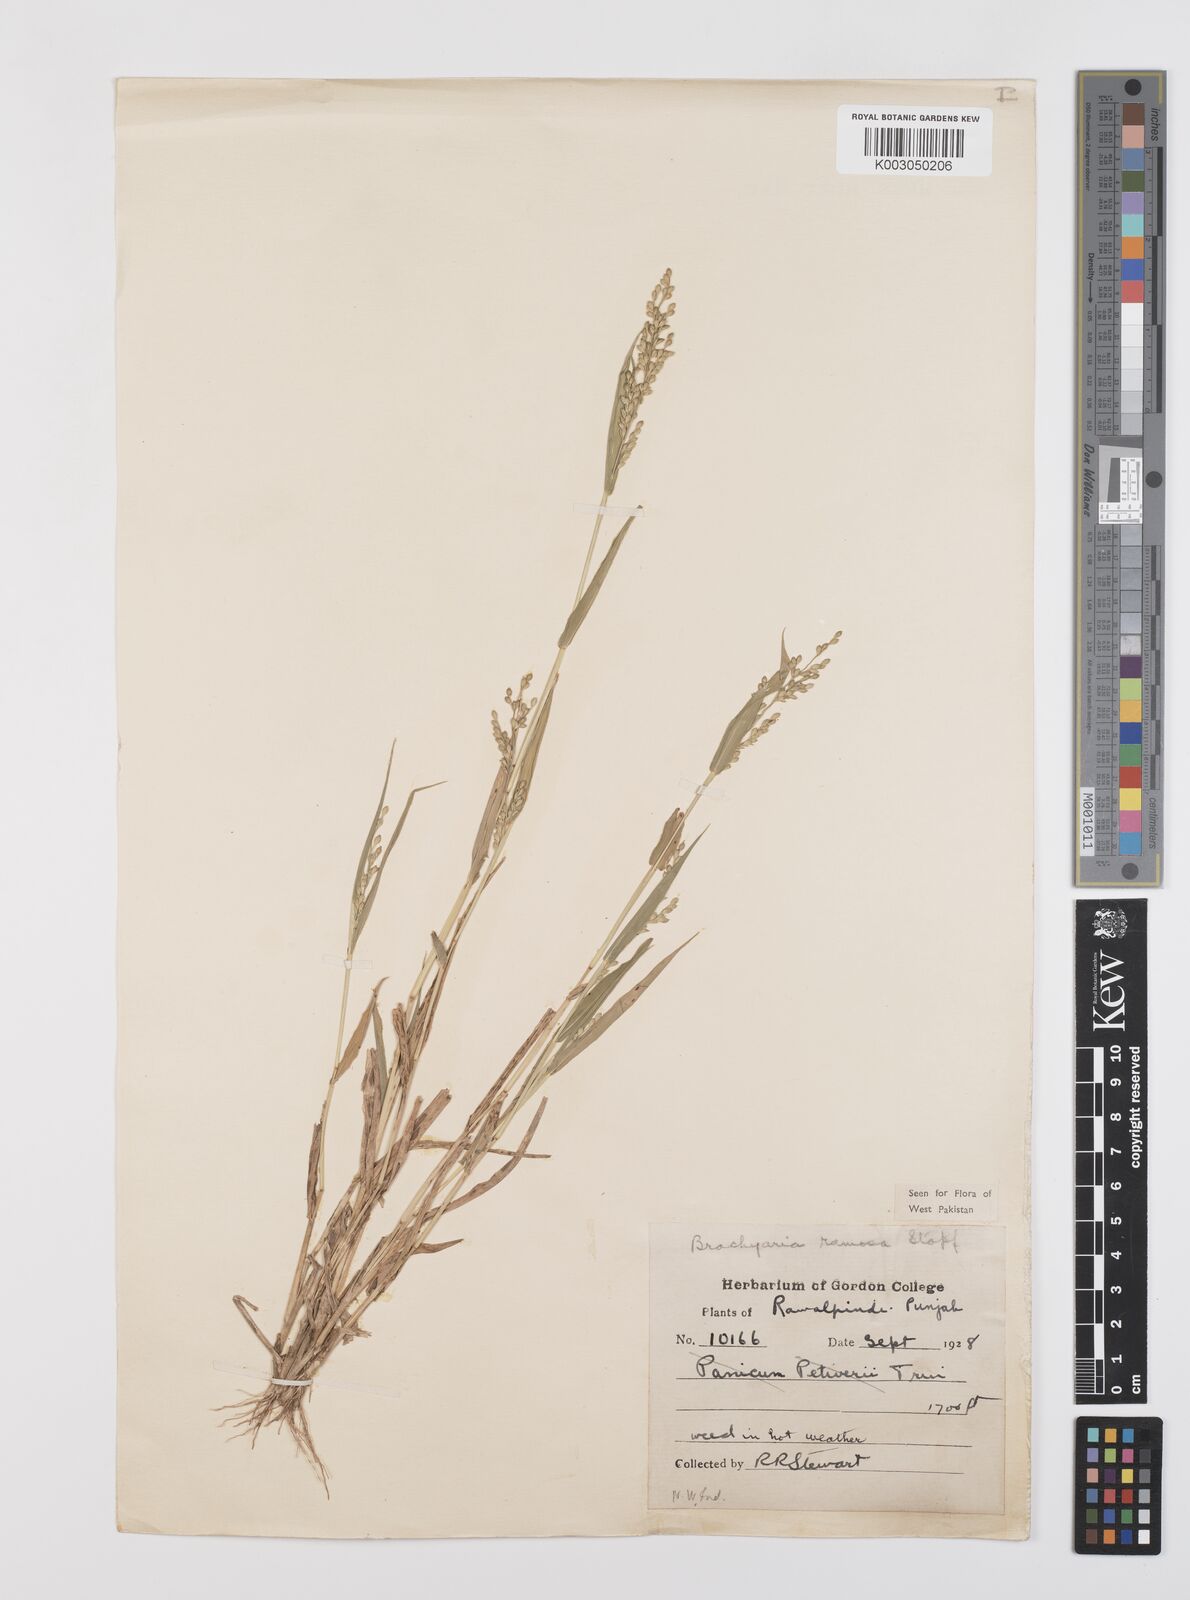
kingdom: Plantae
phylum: Tracheophyta
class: Liliopsida
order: Poales
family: Poaceae
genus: Urochloa
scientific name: Urochloa ramosa
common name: Browntop millet
